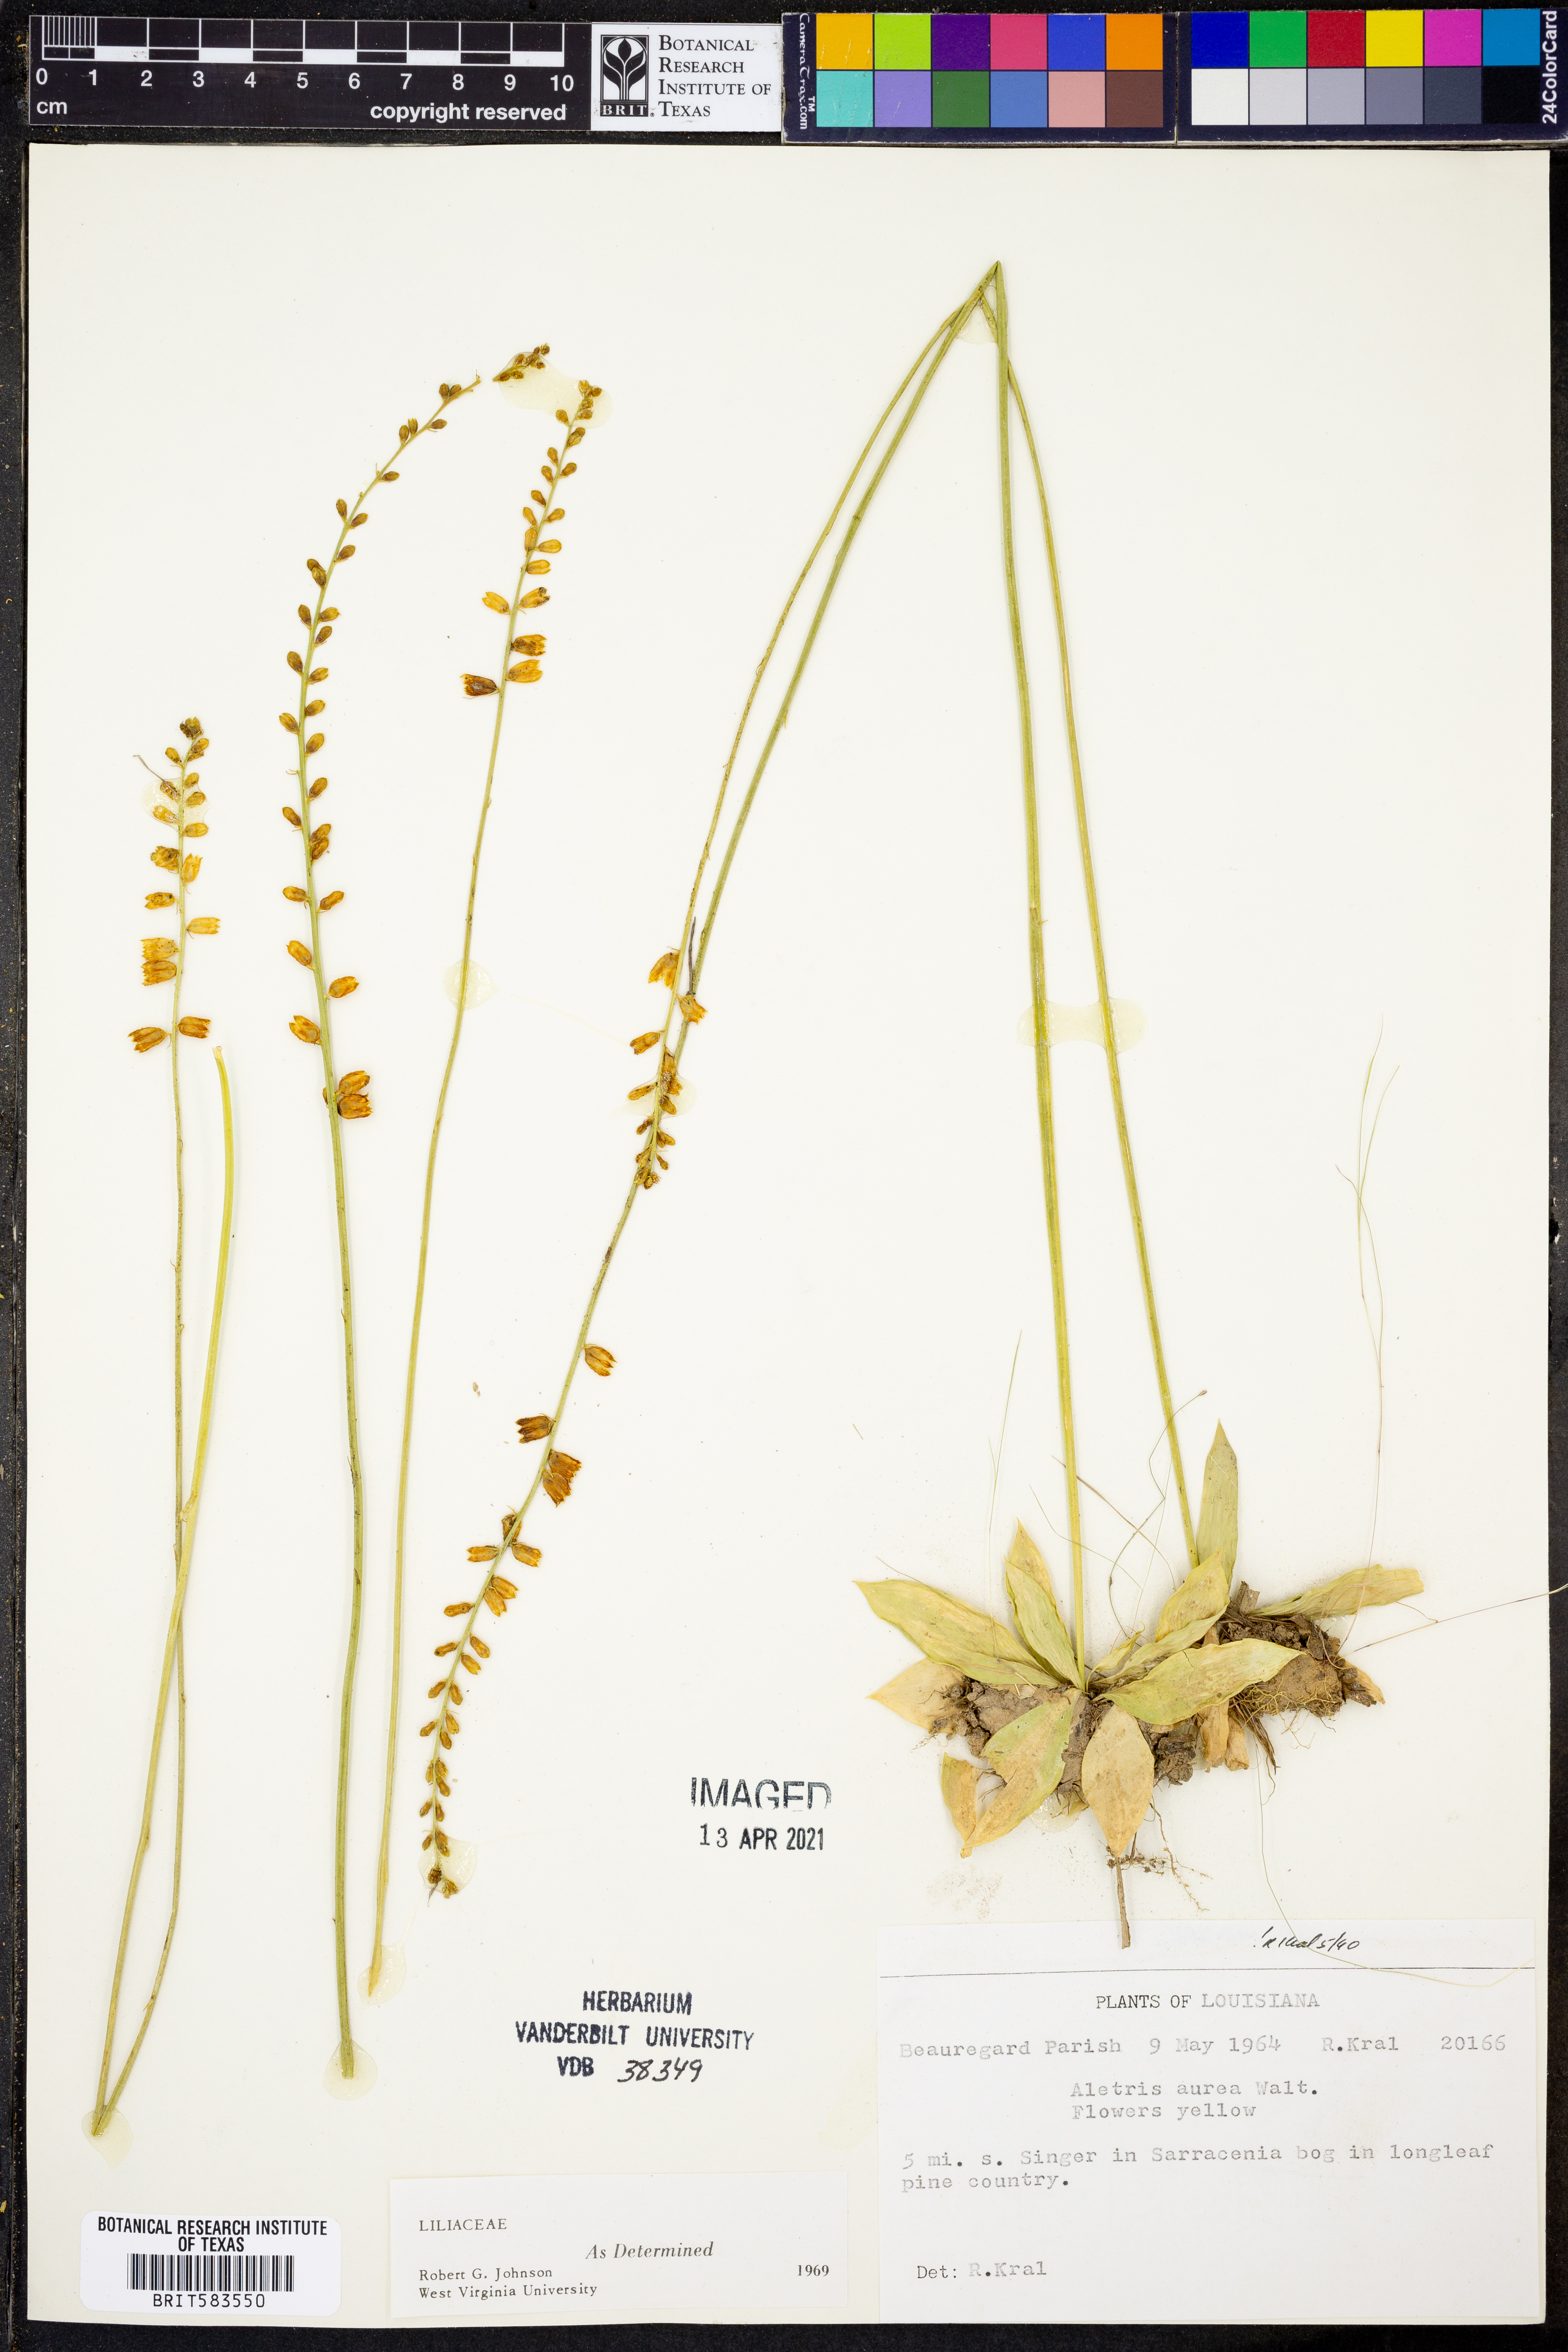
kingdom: Plantae
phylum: Tracheophyta
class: Liliopsida
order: Dioscoreales
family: Nartheciaceae
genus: Aletris
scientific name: Aletris aurea
